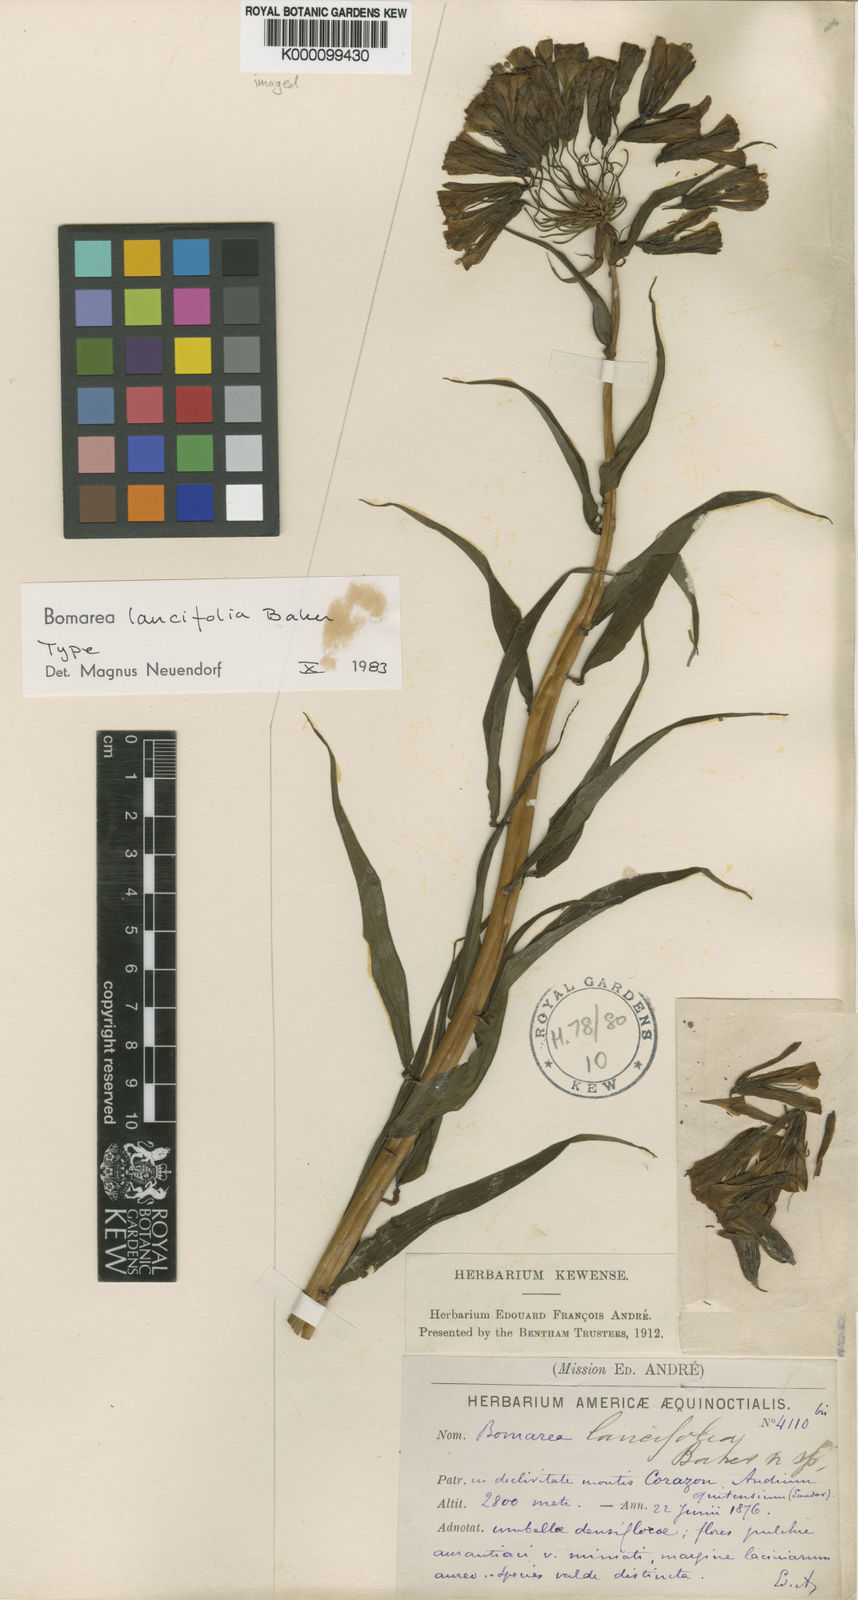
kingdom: Plantae
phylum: Tracheophyta
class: Liliopsida
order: Liliales
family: Alstroemeriaceae
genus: Bomarea
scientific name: Bomarea lancifolia
